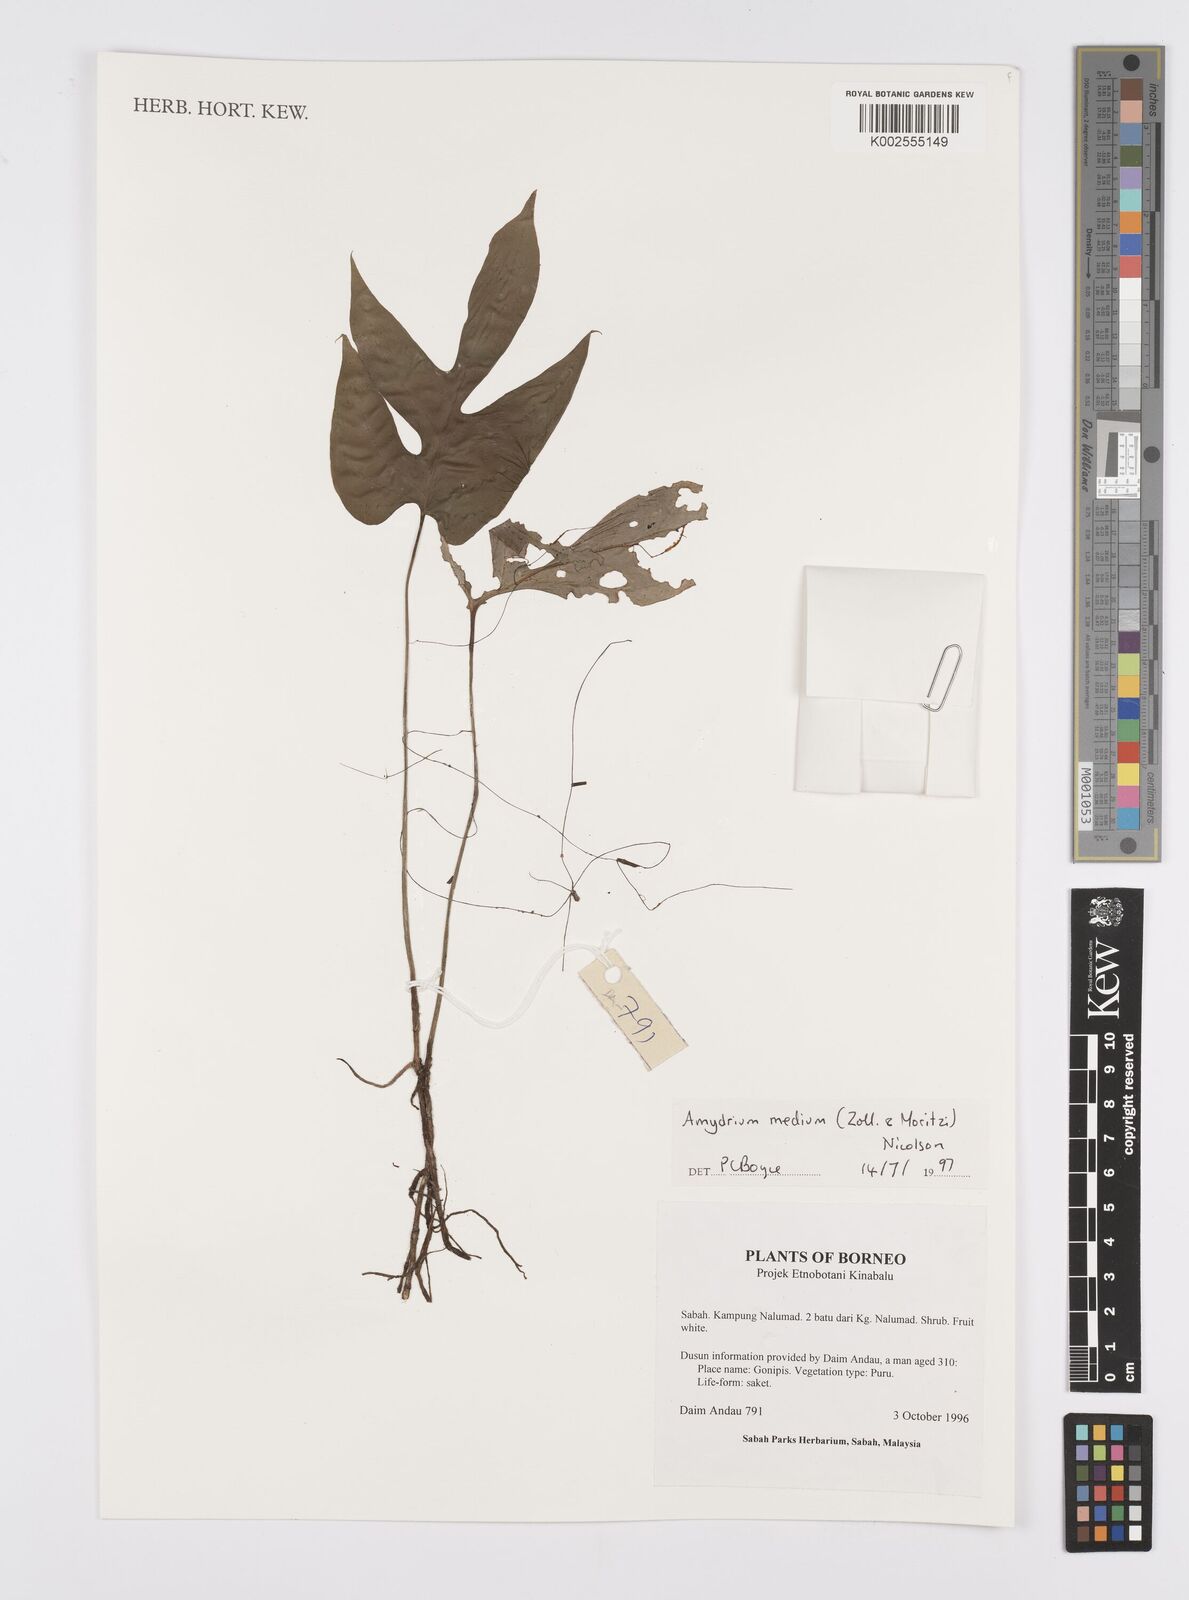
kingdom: Plantae
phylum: Tracheophyta
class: Liliopsida
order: Alismatales
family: Araceae
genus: Amydrium
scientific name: Amydrium medium
